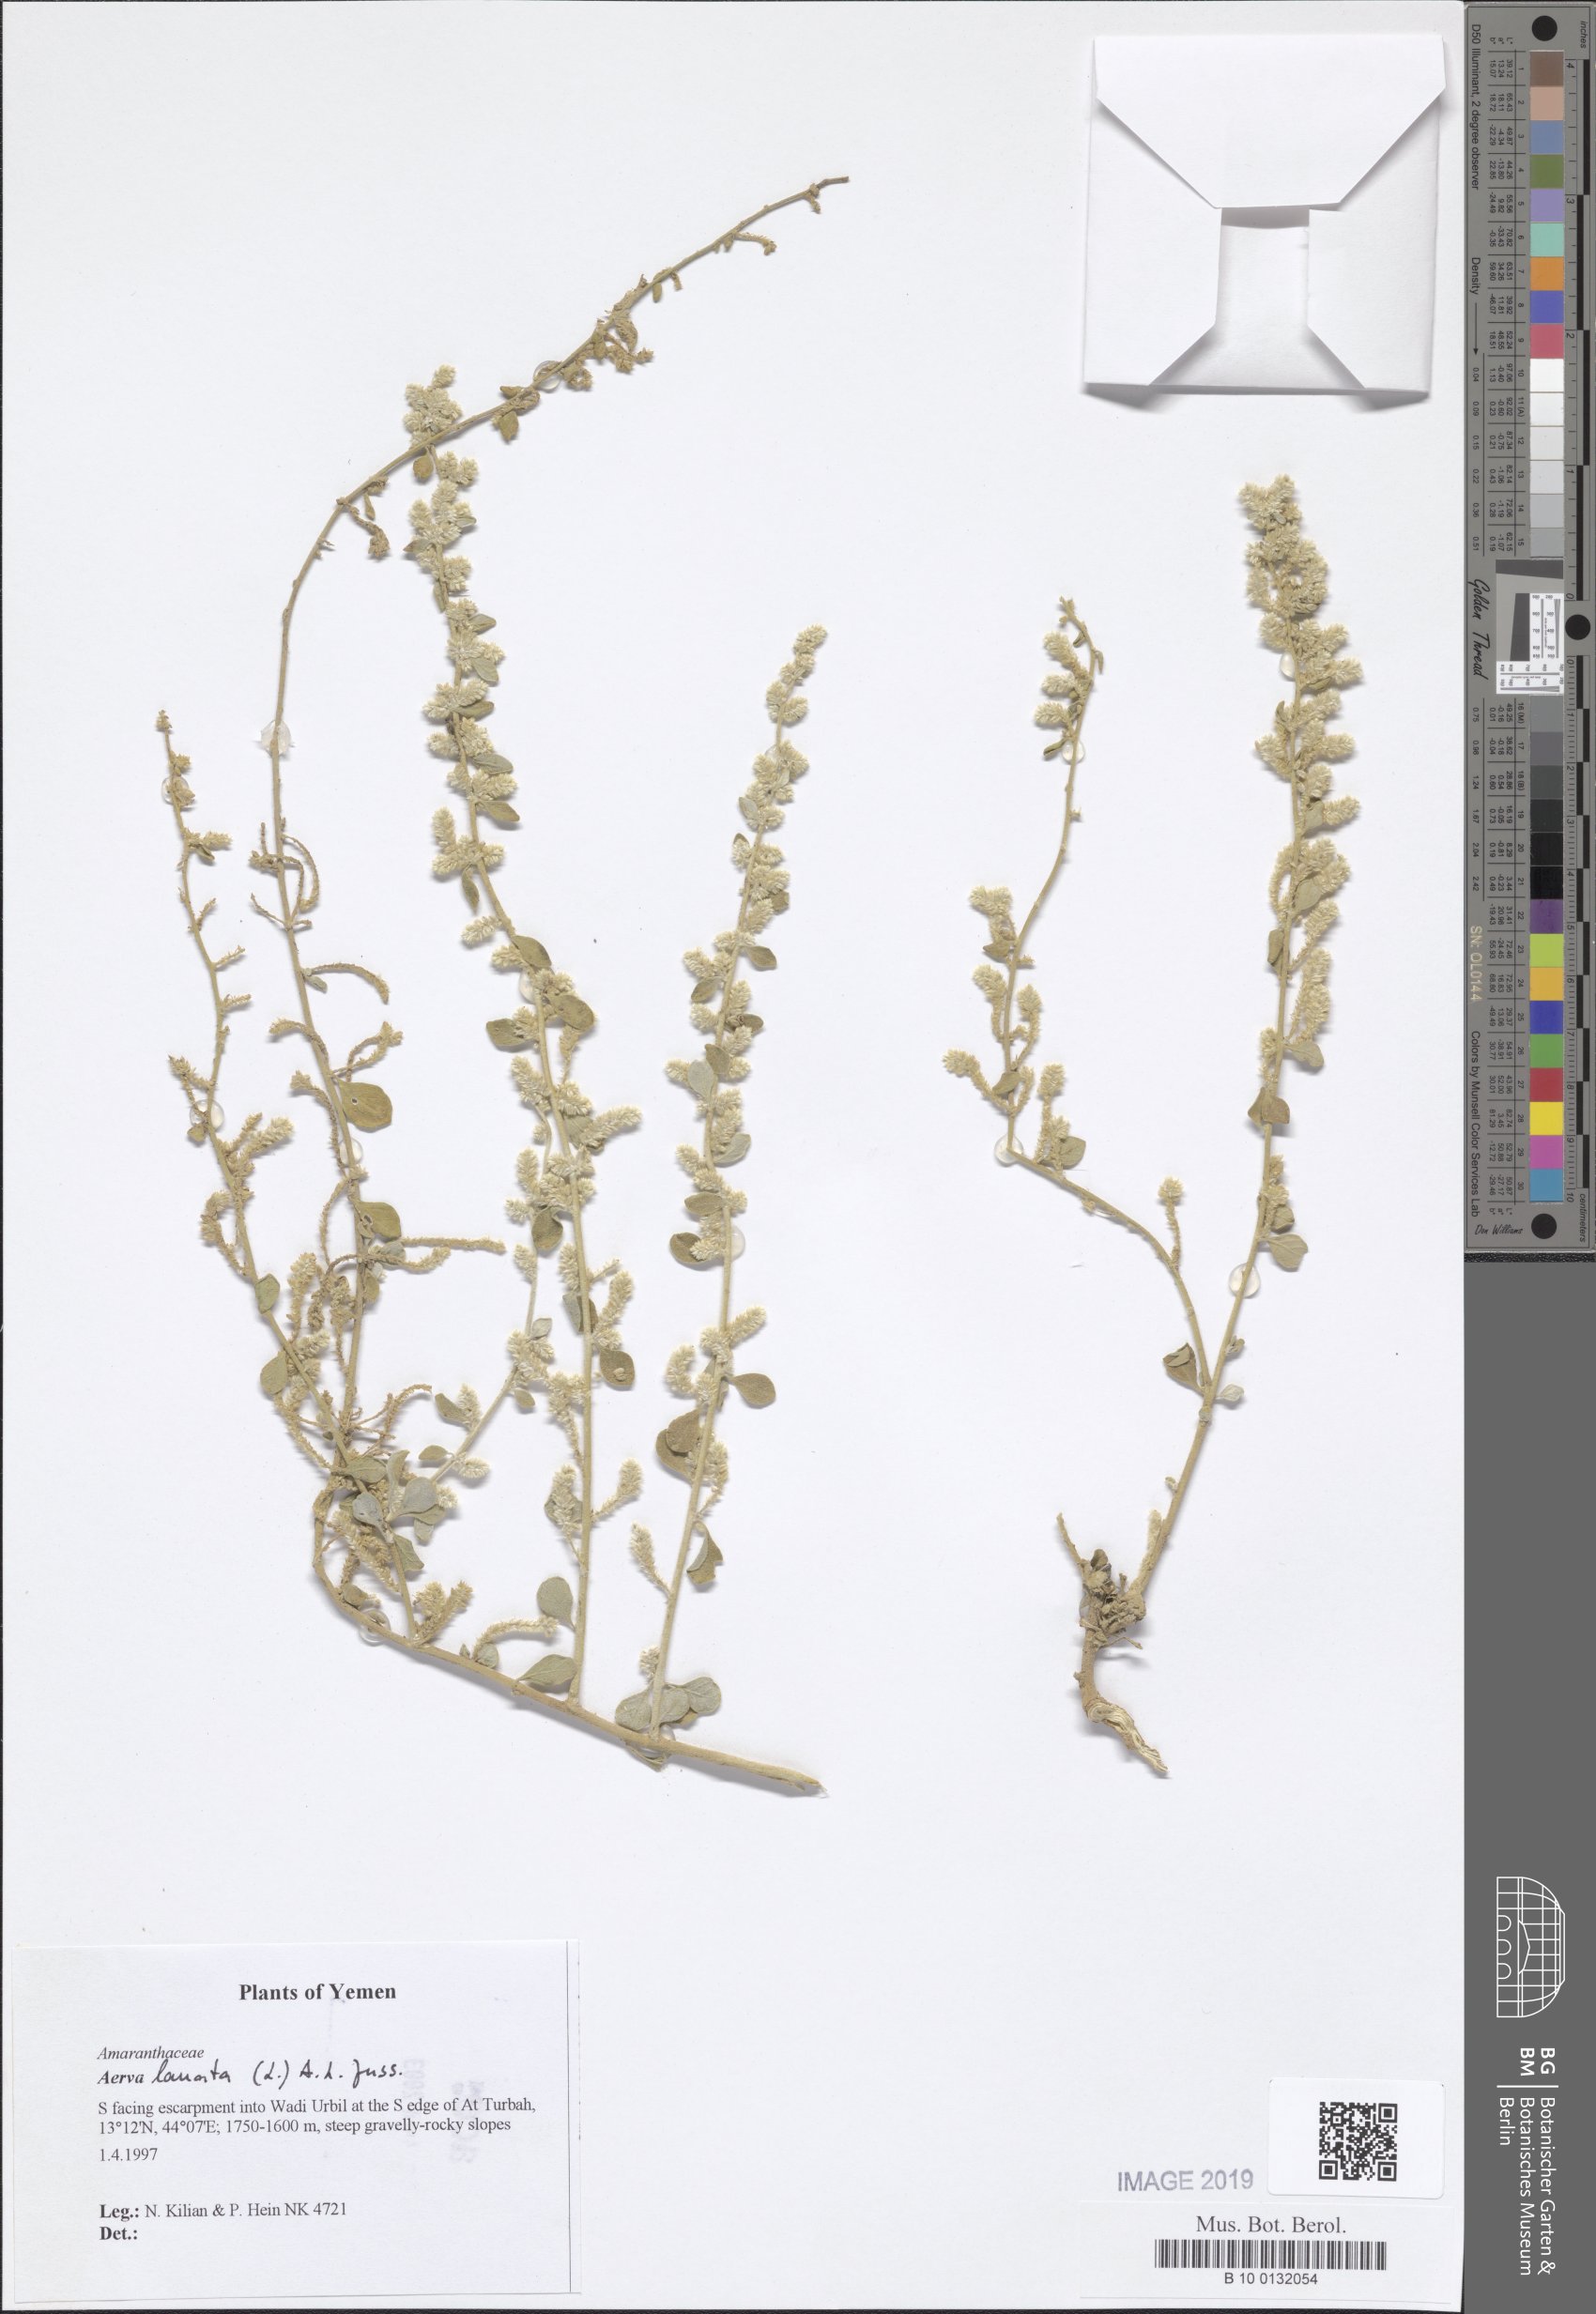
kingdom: Plantae
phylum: Tracheophyta
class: Magnoliopsida
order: Caryophyllales
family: Amaranthaceae
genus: Ouret
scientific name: Ouret lanata
